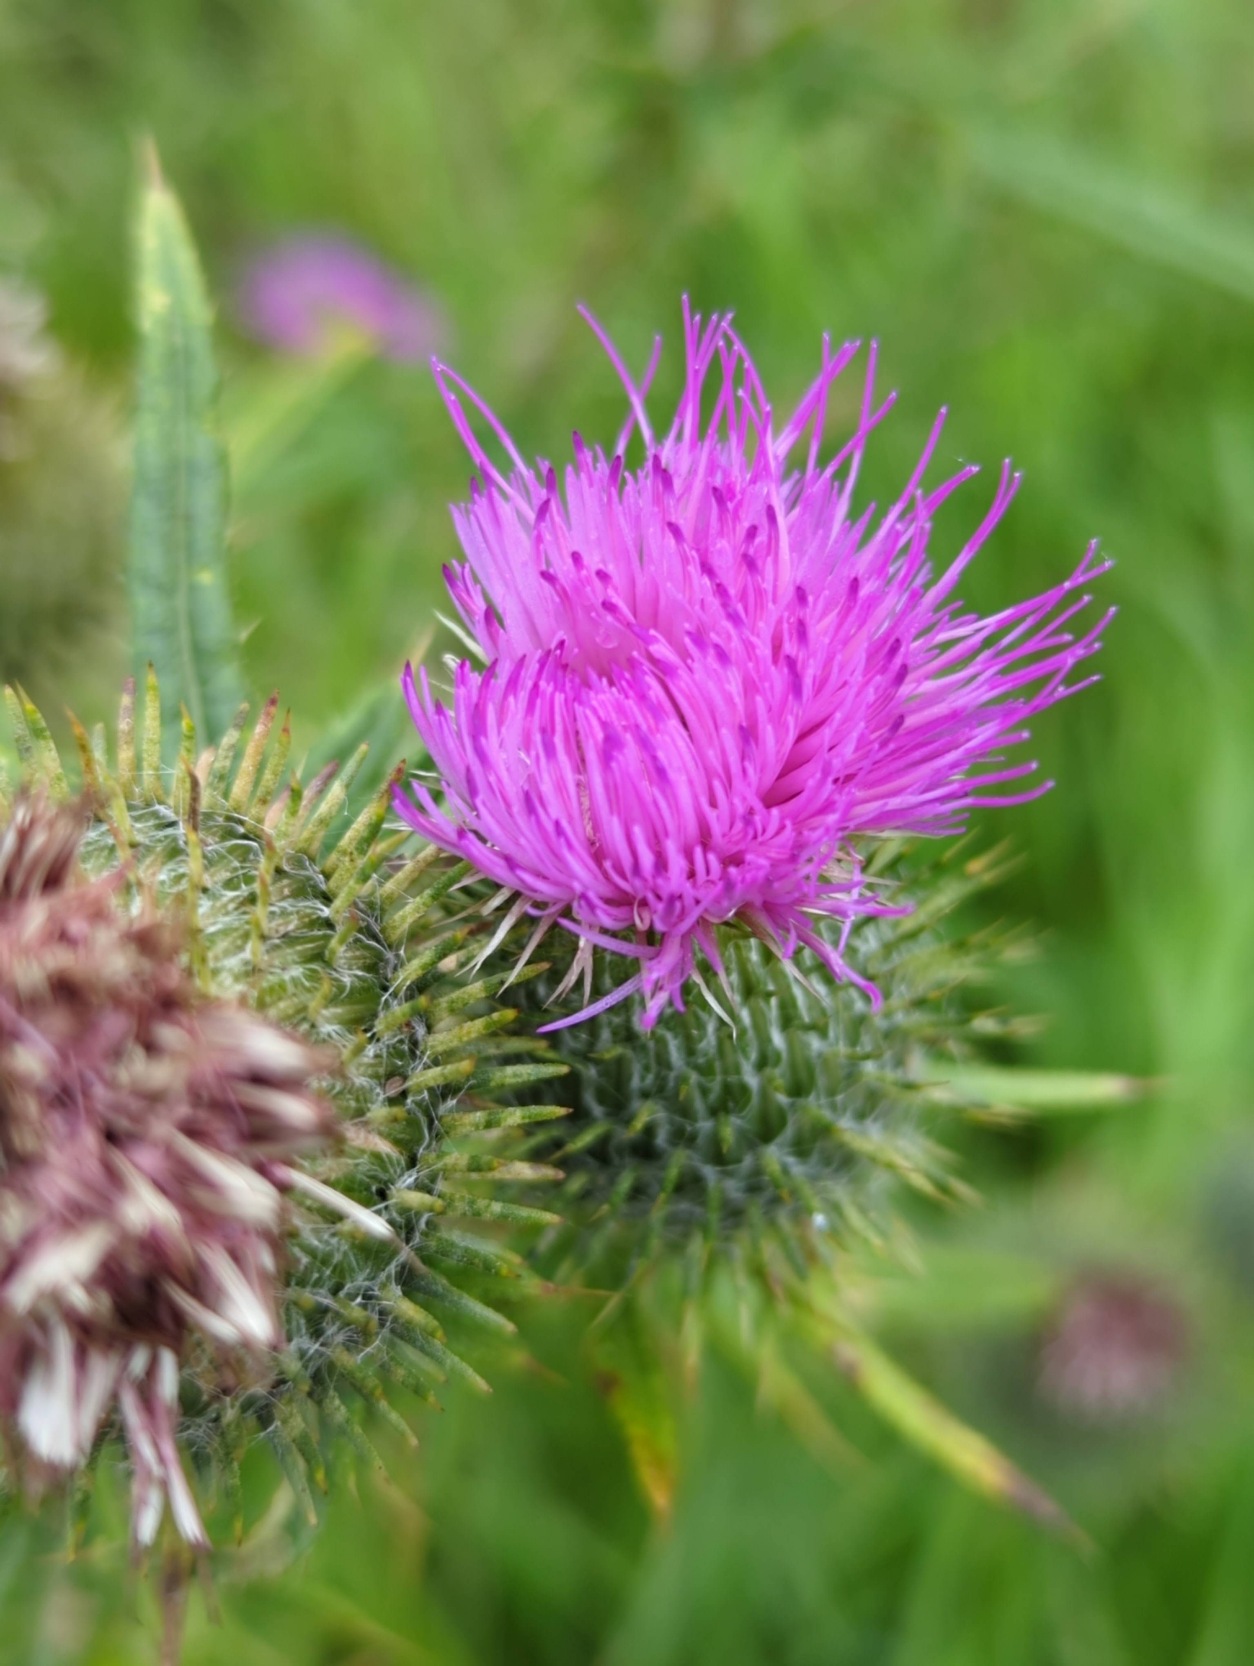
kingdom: Plantae
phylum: Tracheophyta
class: Magnoliopsida
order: Asterales
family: Asteraceae
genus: Cirsium
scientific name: Cirsium vulgare
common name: Horse-tidsel
